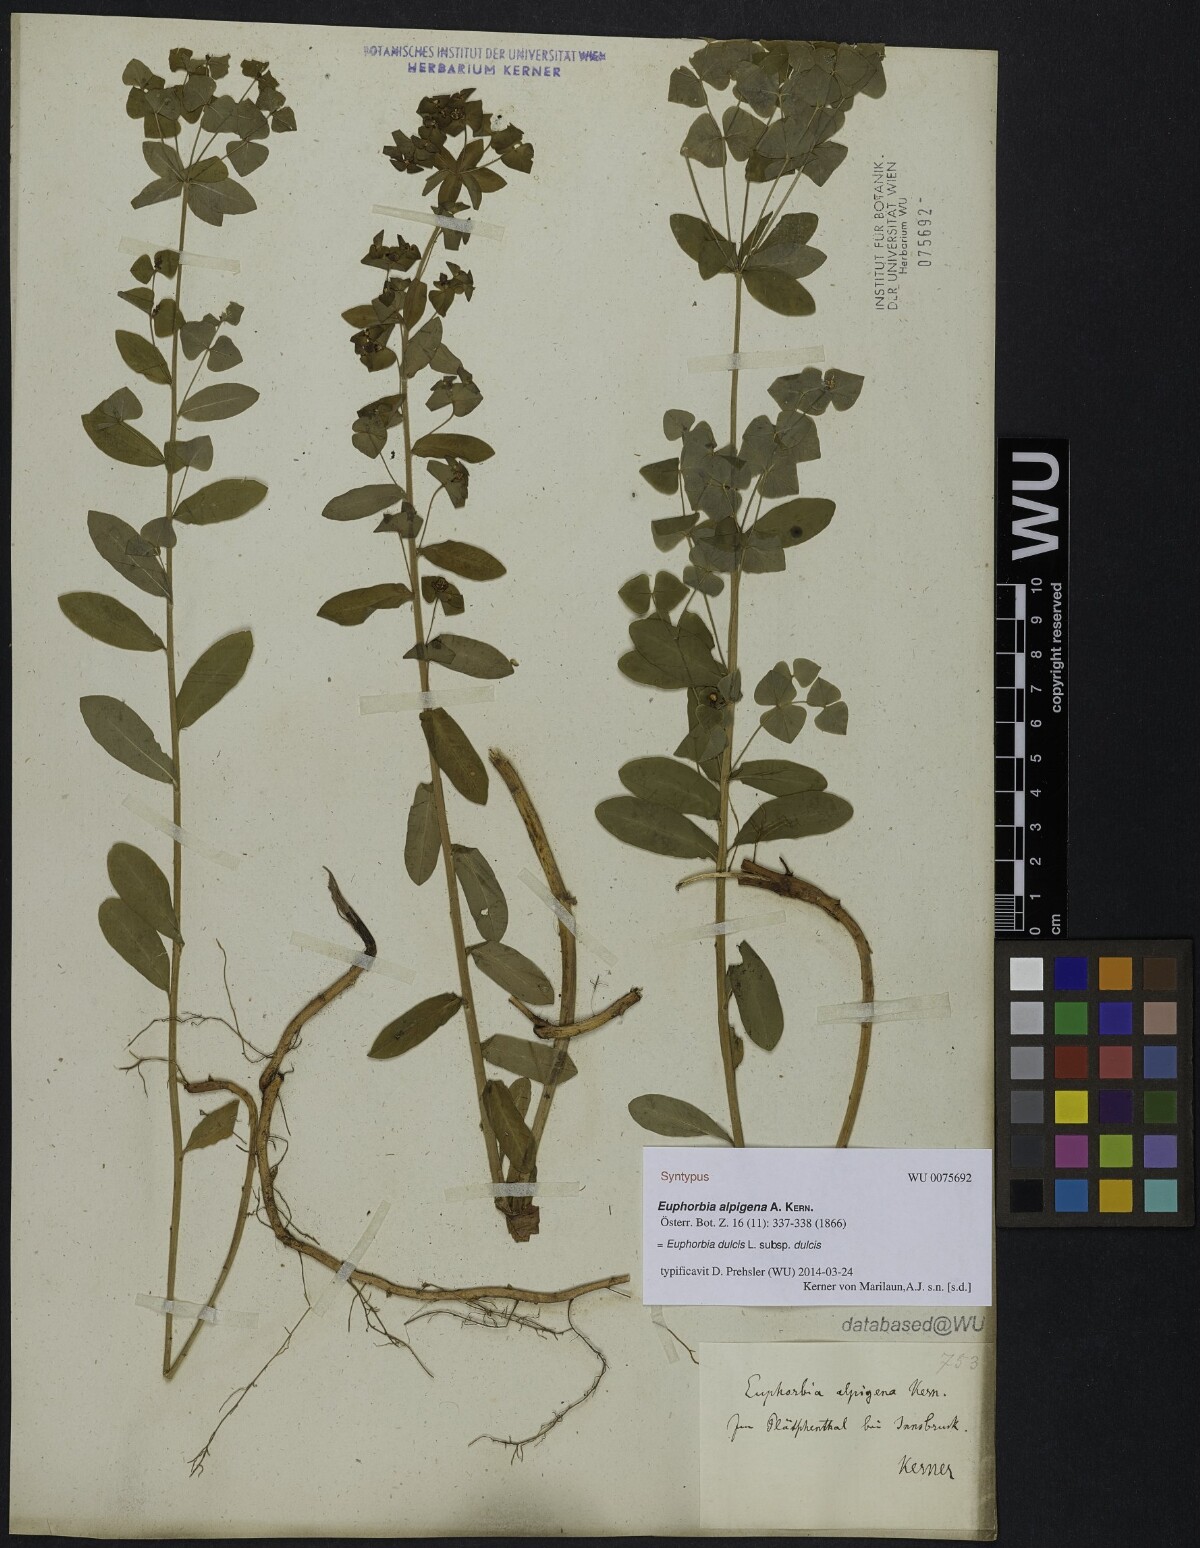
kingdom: Plantae
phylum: Tracheophyta
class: Magnoliopsida
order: Malpighiales
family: Euphorbiaceae
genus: Euphorbia
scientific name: Euphorbia dulcis
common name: Sweet spurge
